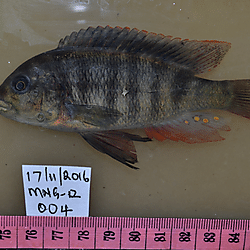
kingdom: Animalia
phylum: Chordata
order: Perciformes
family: Cichlidae
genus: Neochromis
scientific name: Neochromis
